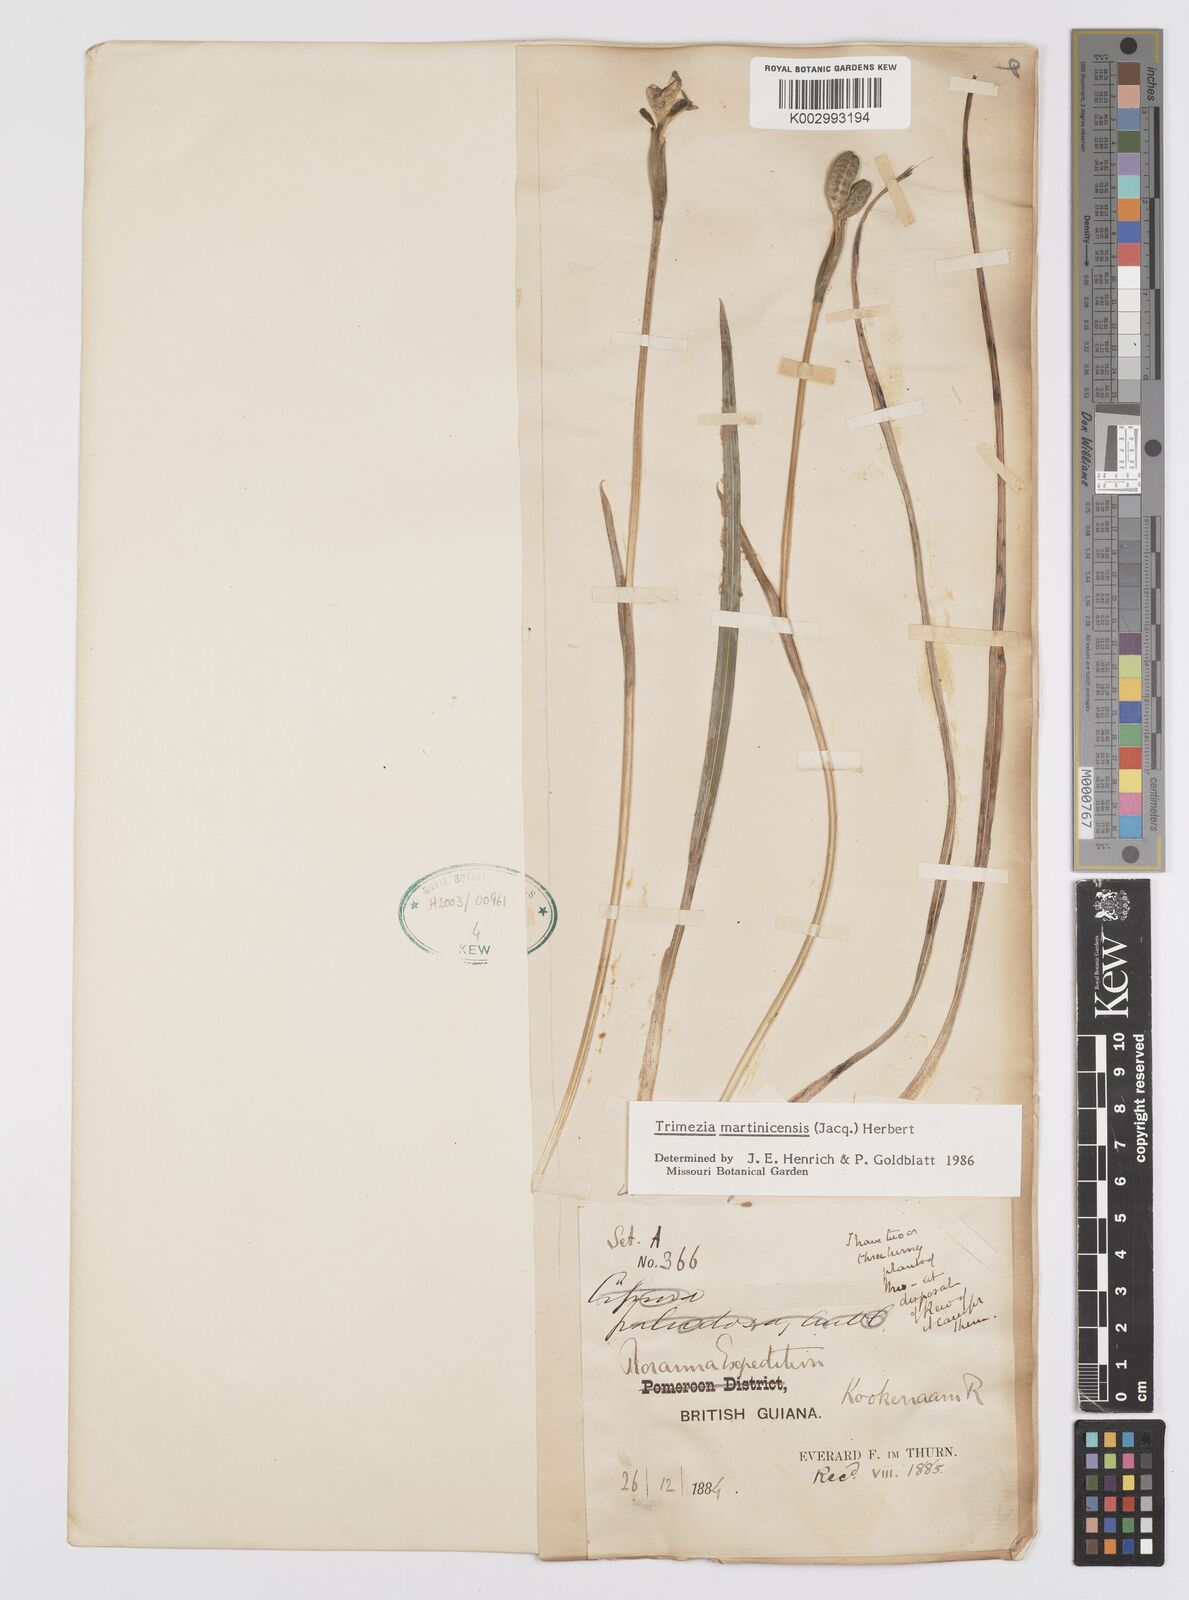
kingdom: Plantae
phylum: Tracheophyta
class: Liliopsida
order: Asparagales
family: Iridaceae
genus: Trimezia
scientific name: Trimezia martinicensis
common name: Martinique trimezia
